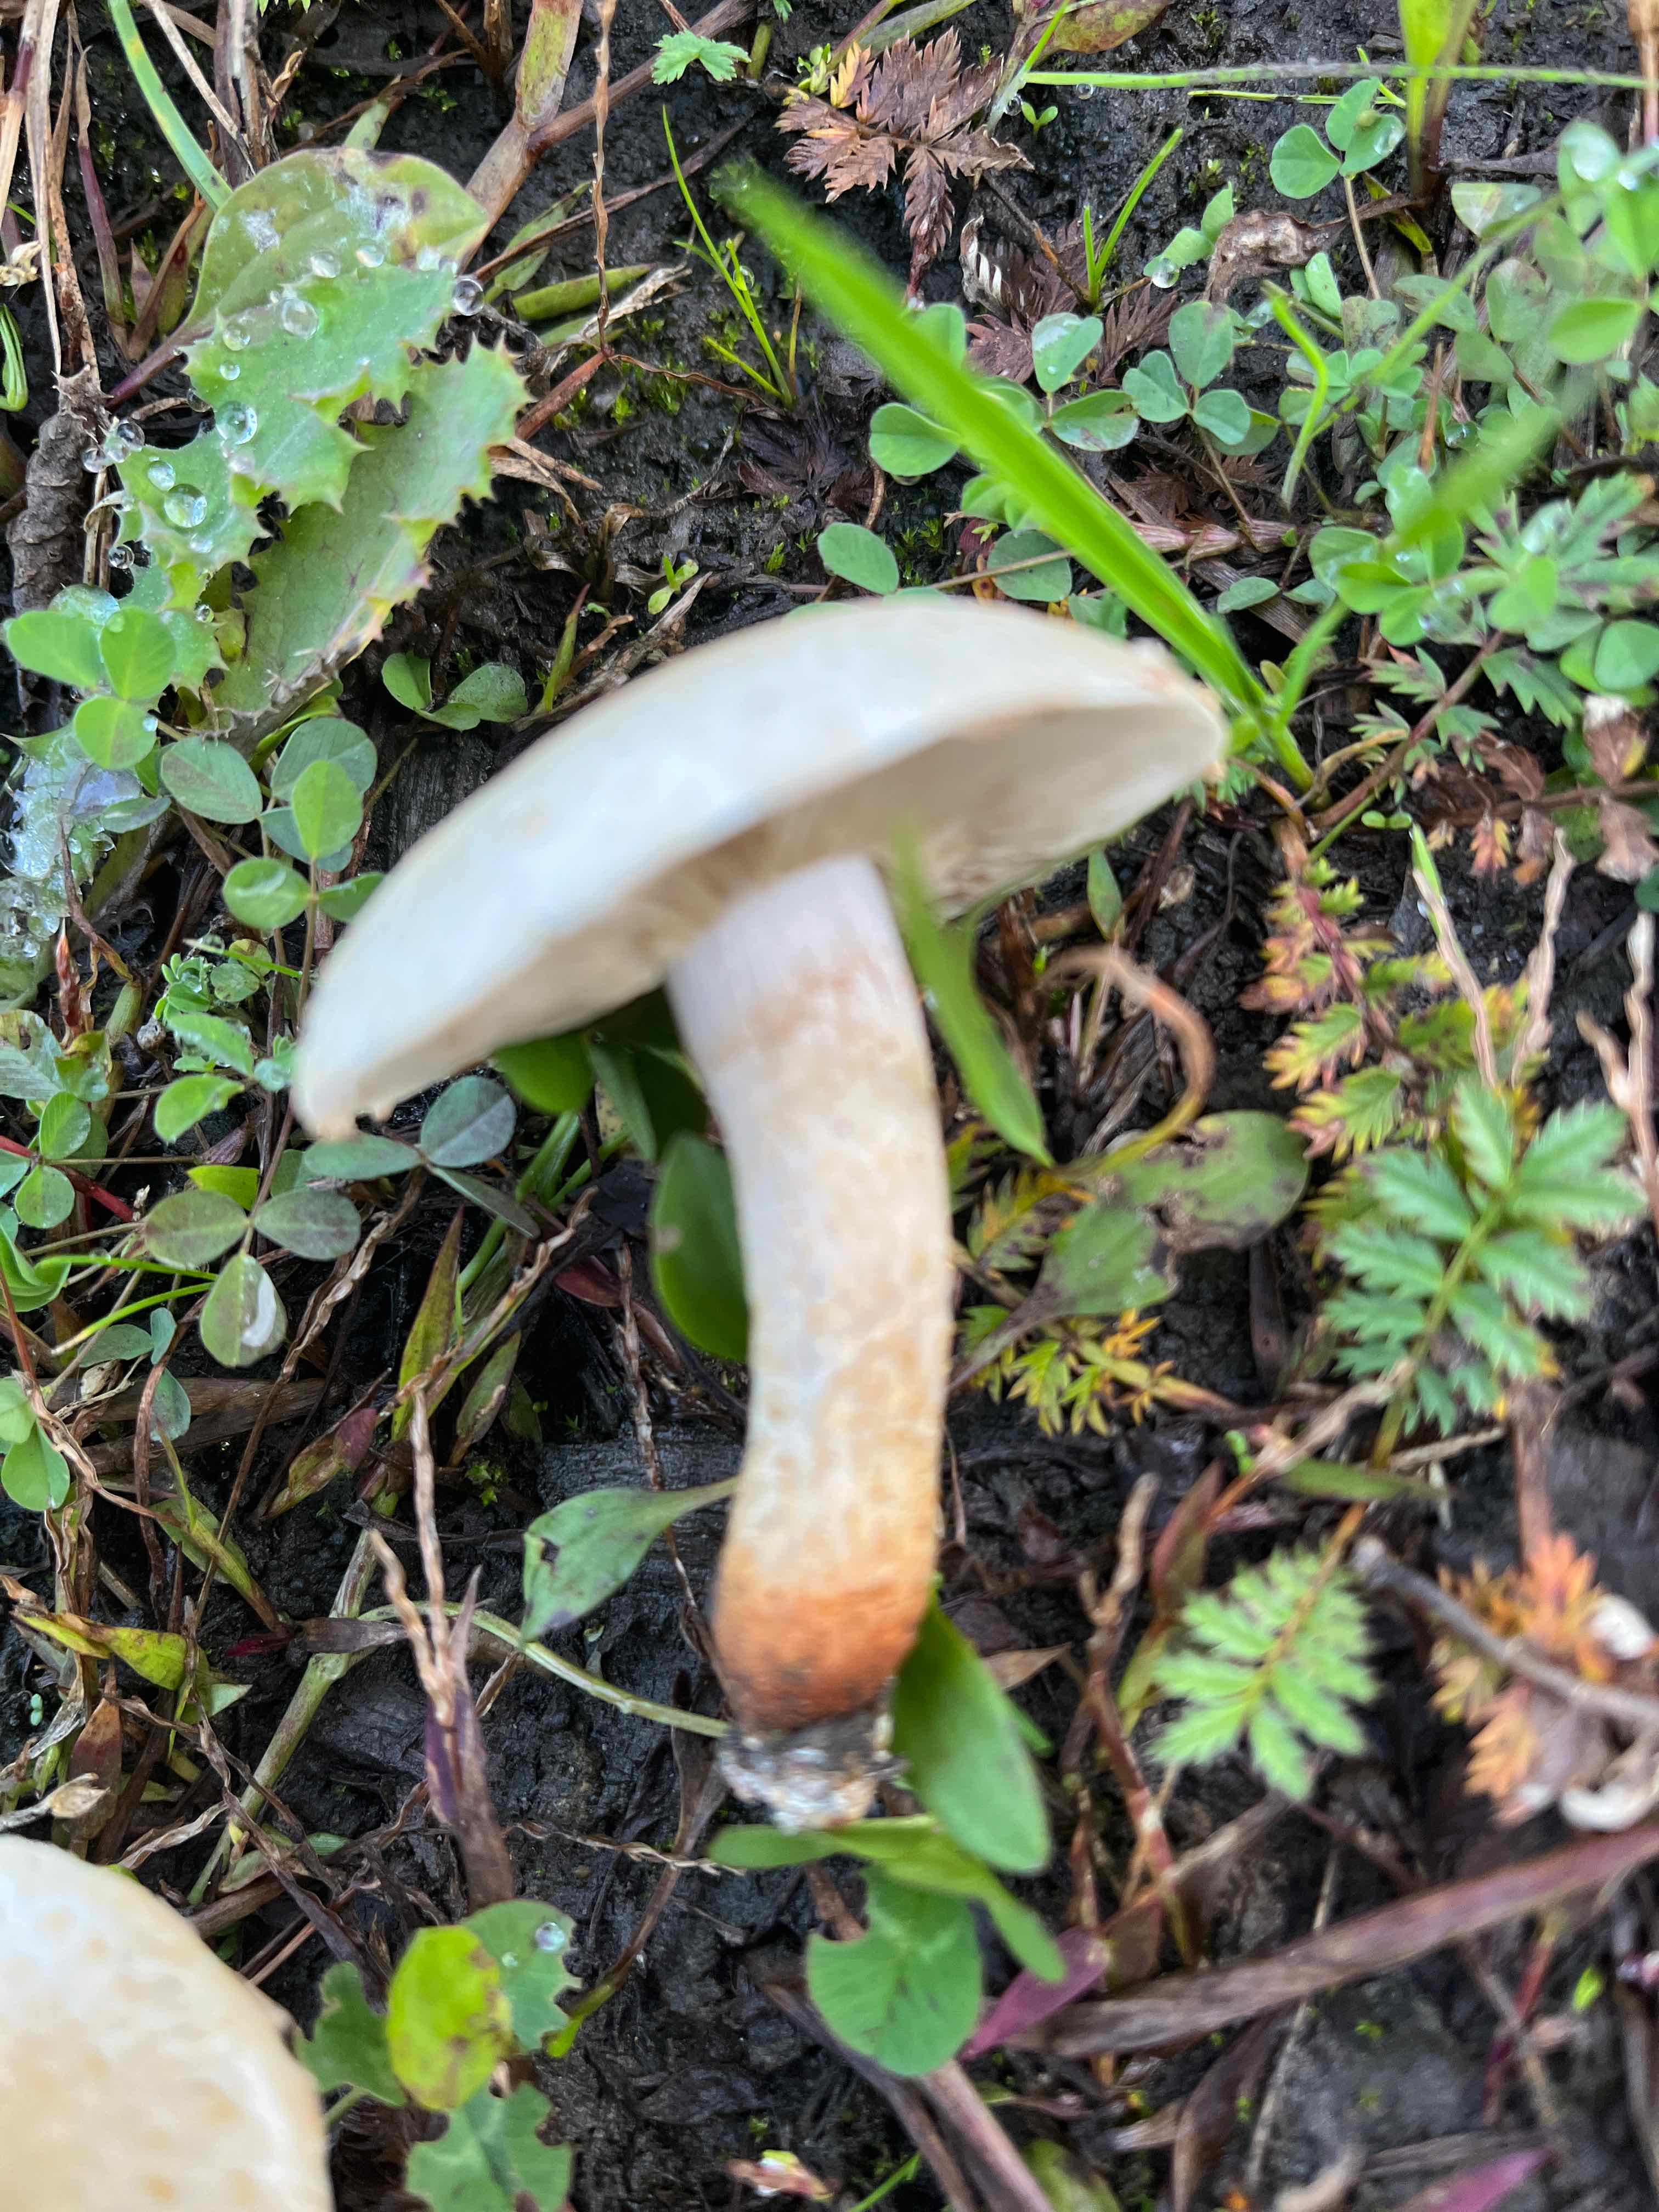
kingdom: Fungi
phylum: Basidiomycota
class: Agaricomycetes
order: Agaricales
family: Strophariaceae
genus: Pholiota
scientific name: Pholiota gummosa
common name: grøngul skælhat
